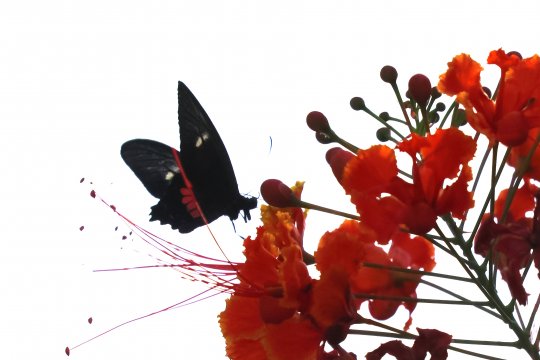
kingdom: Animalia
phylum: Arthropoda
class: Insecta
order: Lepidoptera
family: Papilionidae
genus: Parides
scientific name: Parides eurimedes
